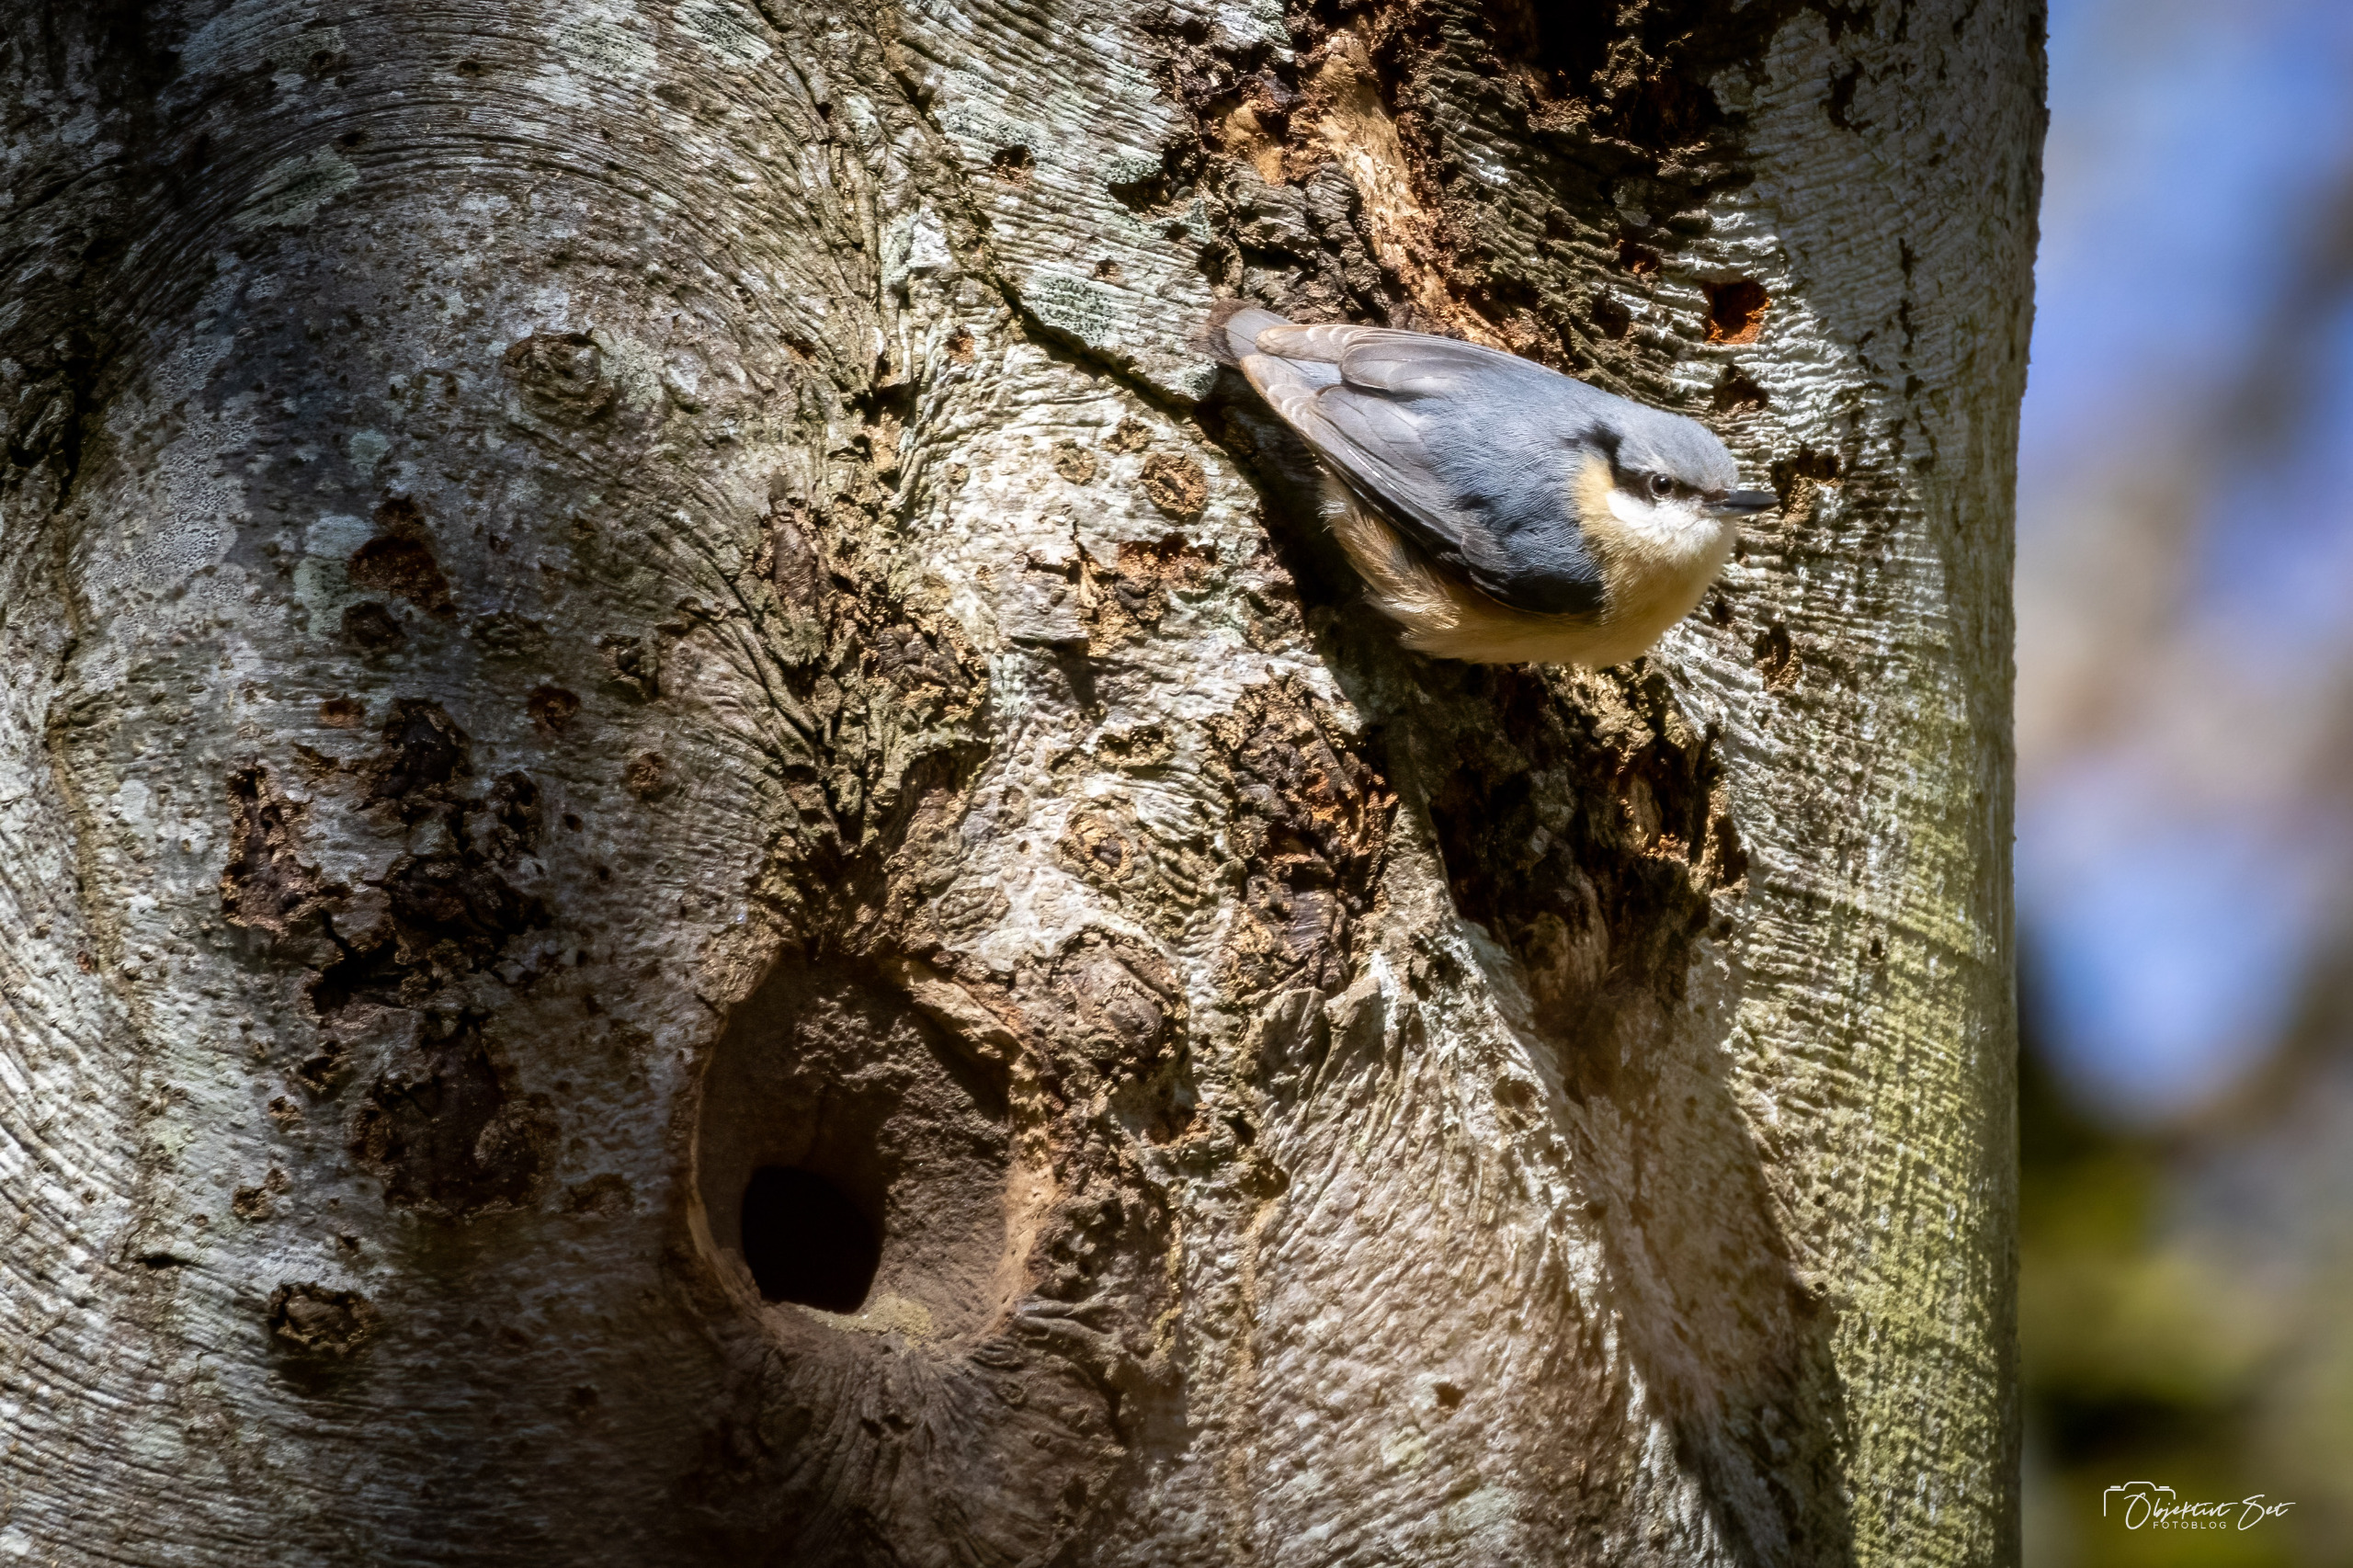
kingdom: Animalia
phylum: Chordata
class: Aves
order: Passeriformes
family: Sittidae
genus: Sitta
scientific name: Sitta europaea
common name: Spætmejse
